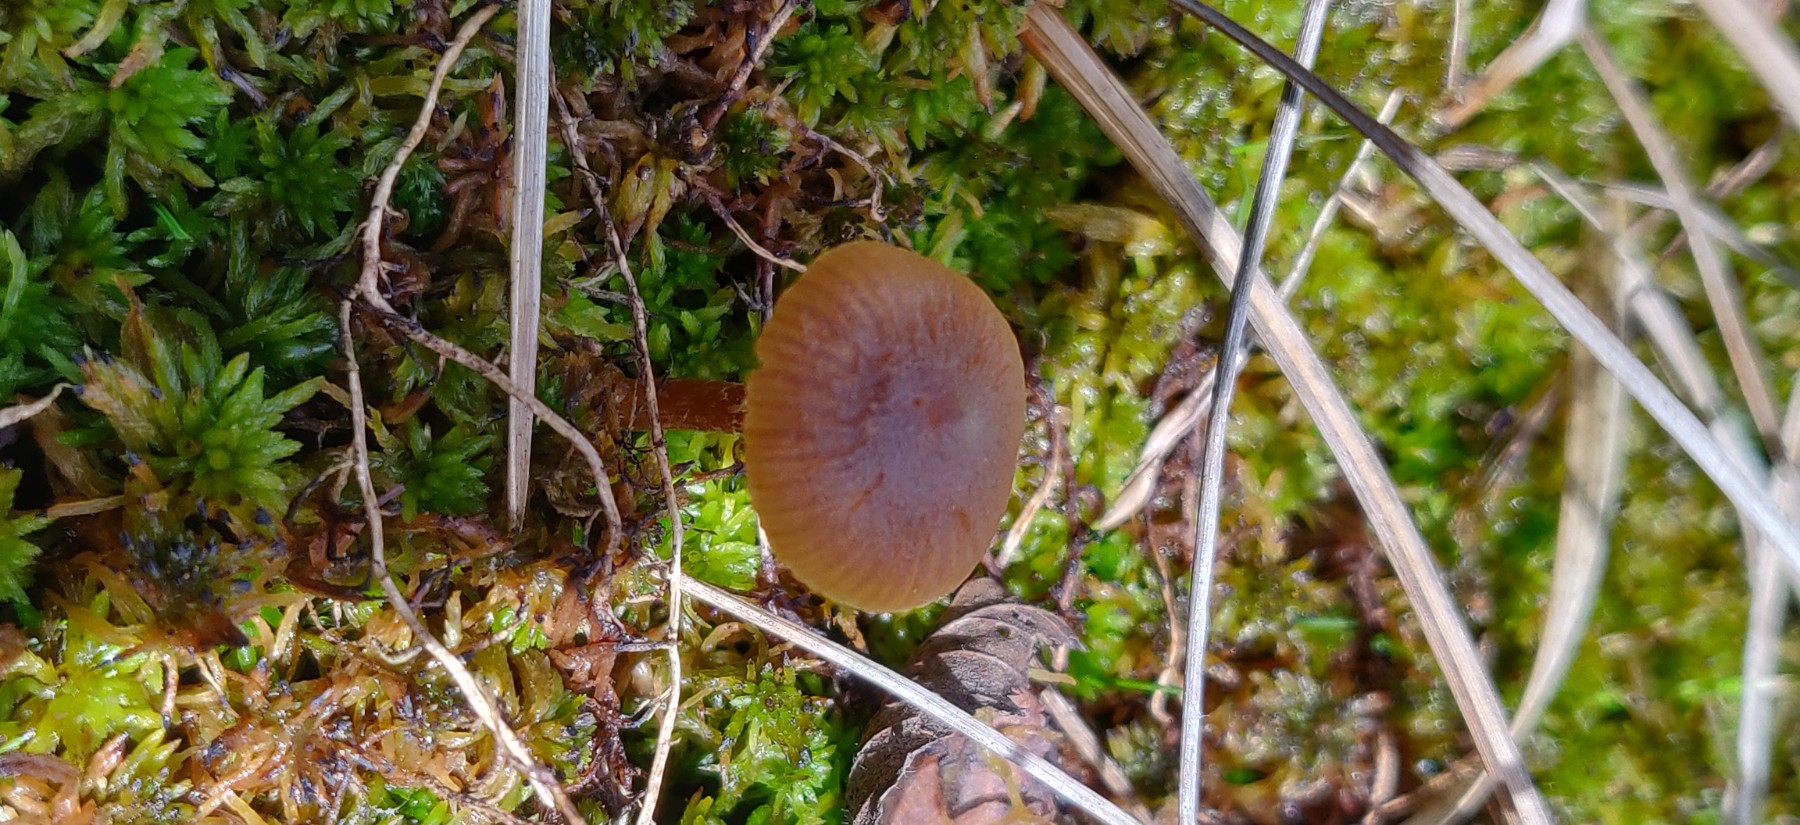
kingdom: Fungi
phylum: Basidiomycota
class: Agaricomycetes
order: Agaricales
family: Hymenogastraceae
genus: Galerina
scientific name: Galerina paludosa
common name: mose-hjelmhat
